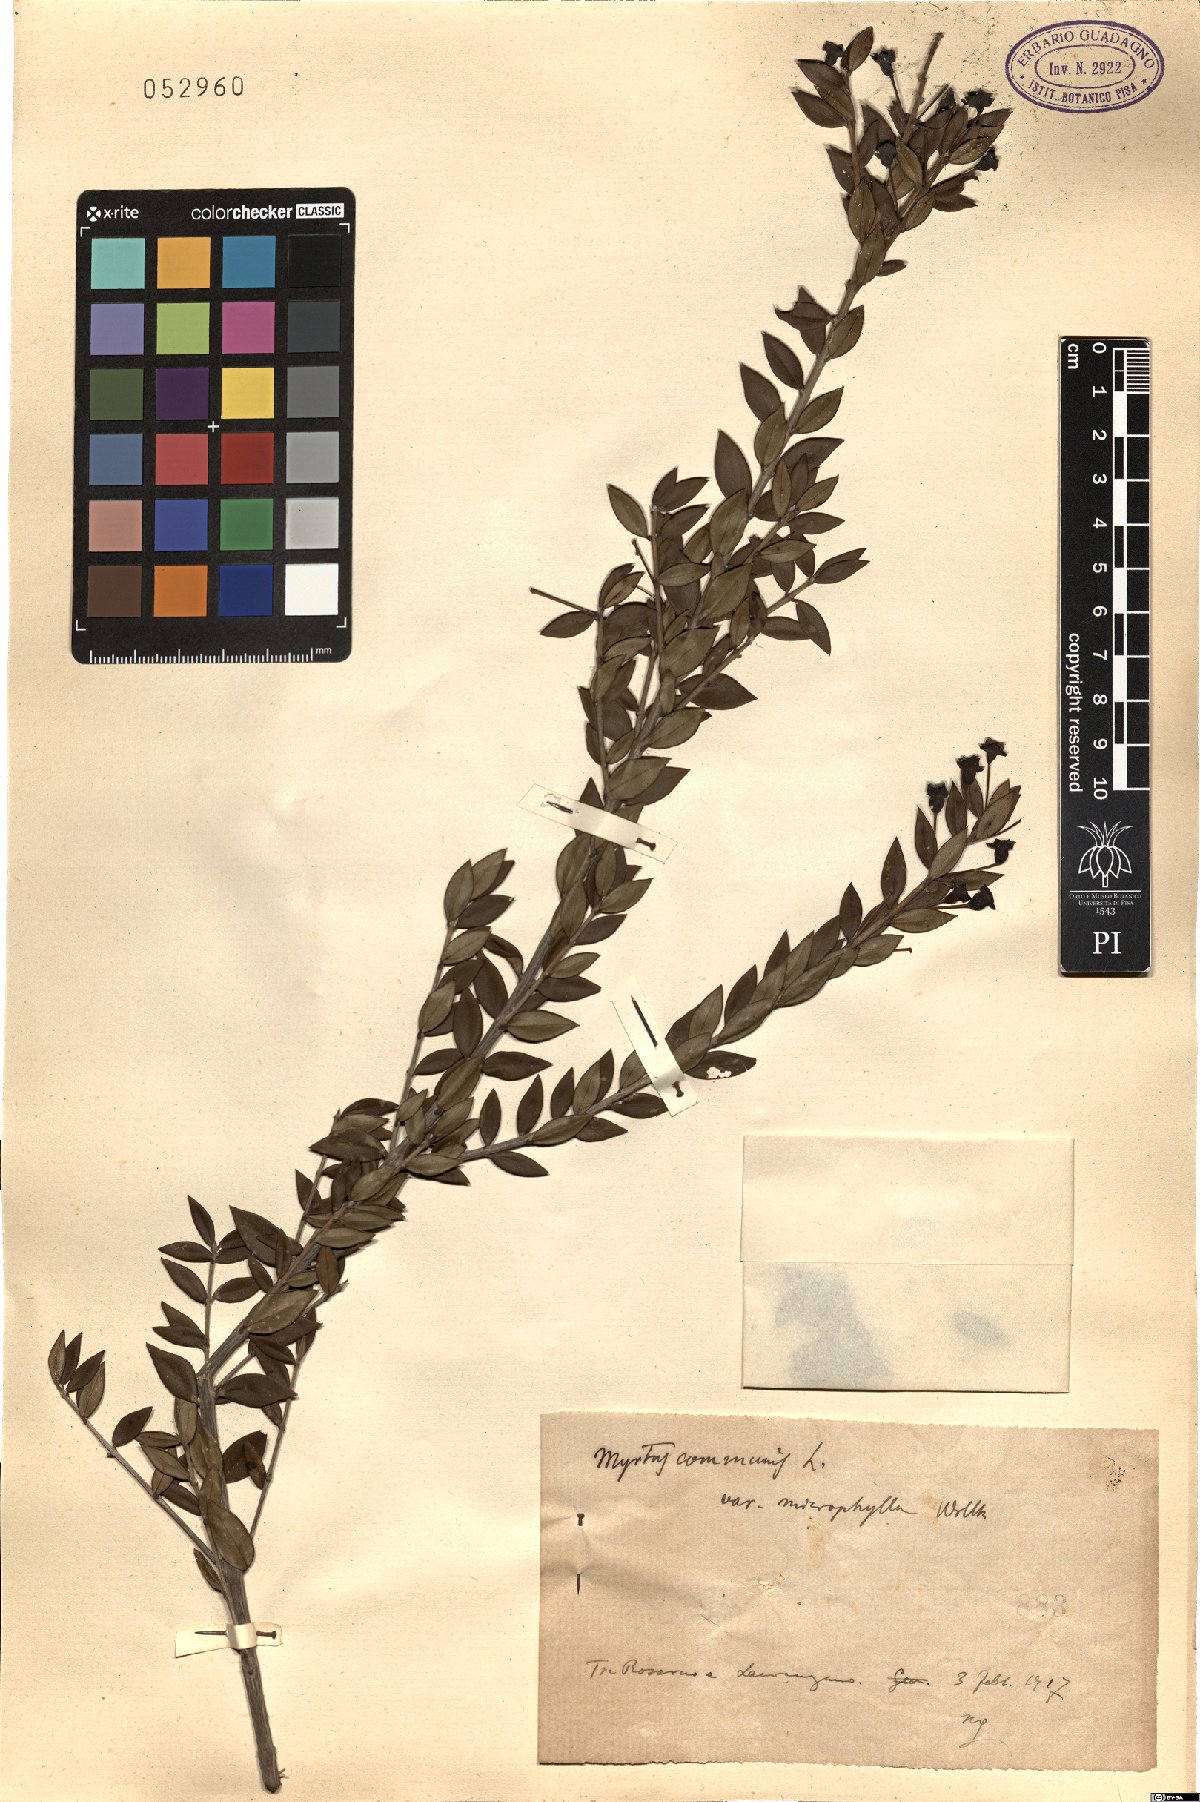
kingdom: Plantae
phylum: Tracheophyta
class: Magnoliopsida
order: Myrtales
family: Myrtaceae
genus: Myrtus
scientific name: Myrtus communis
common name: Myrtle
